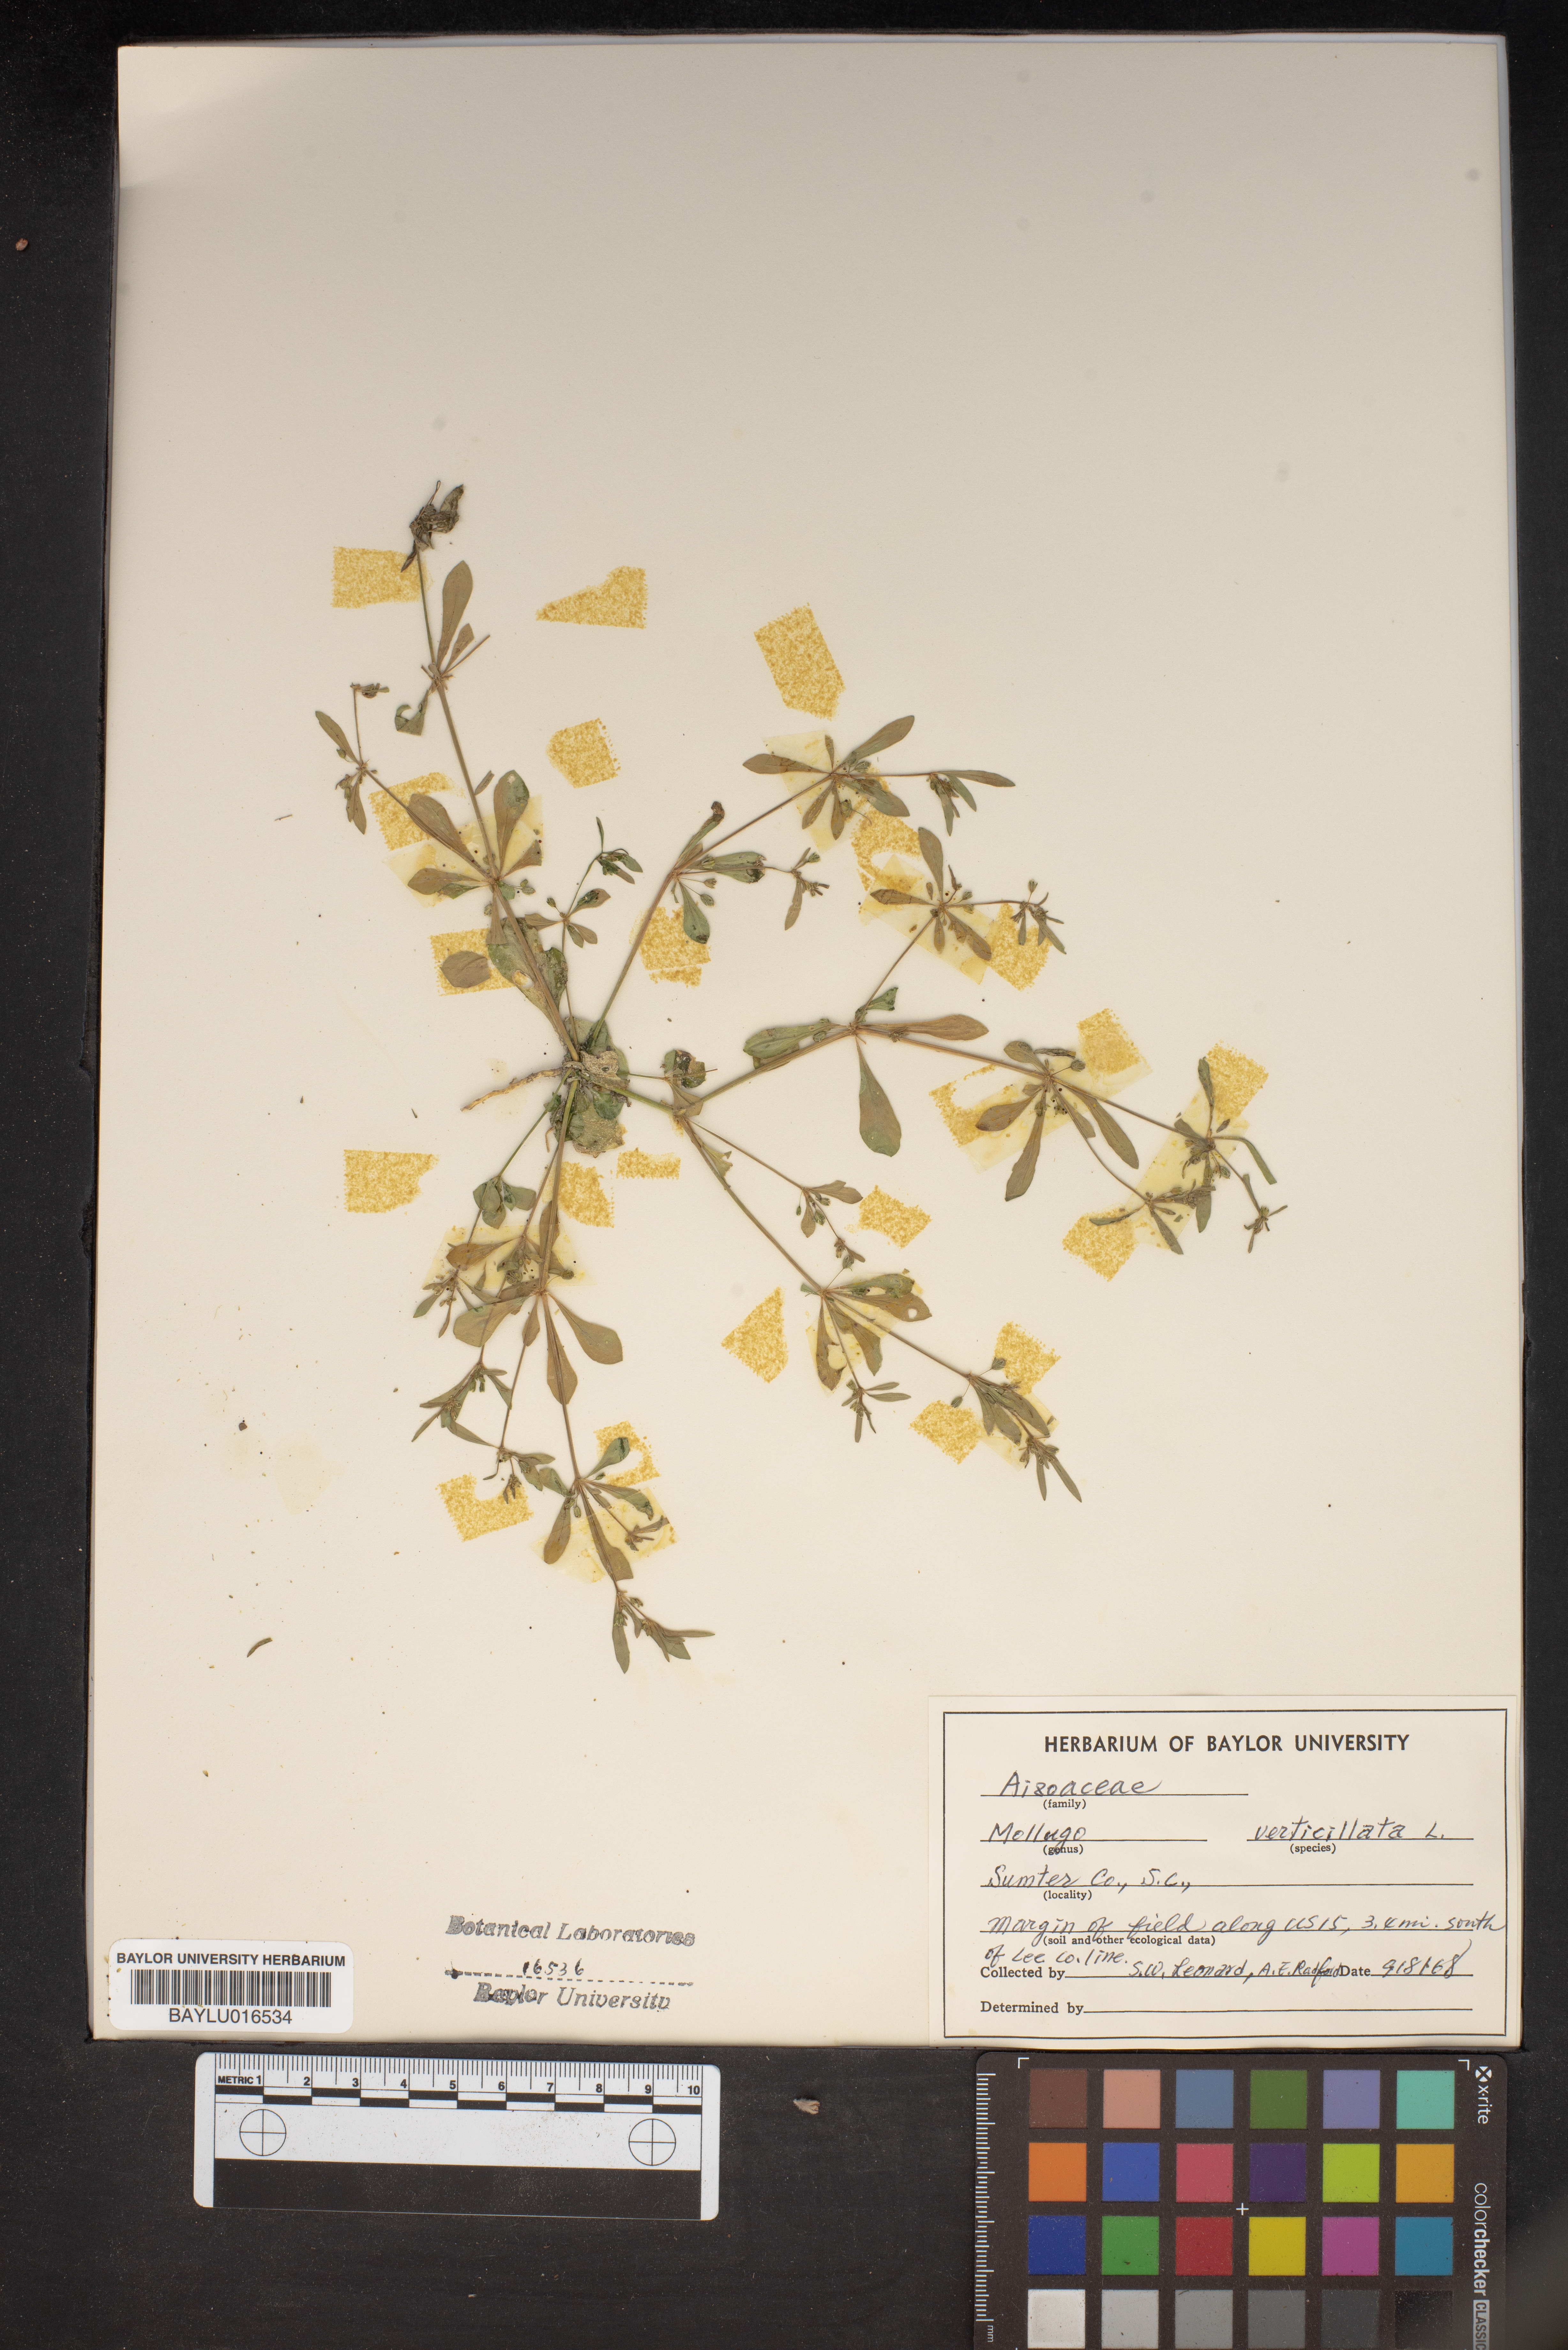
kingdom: Plantae
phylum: Tracheophyta
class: Magnoliopsida
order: Caryophyllales
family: Molluginaceae
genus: Mollugo
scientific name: Mollugo verticillata
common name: Green carpetweed
